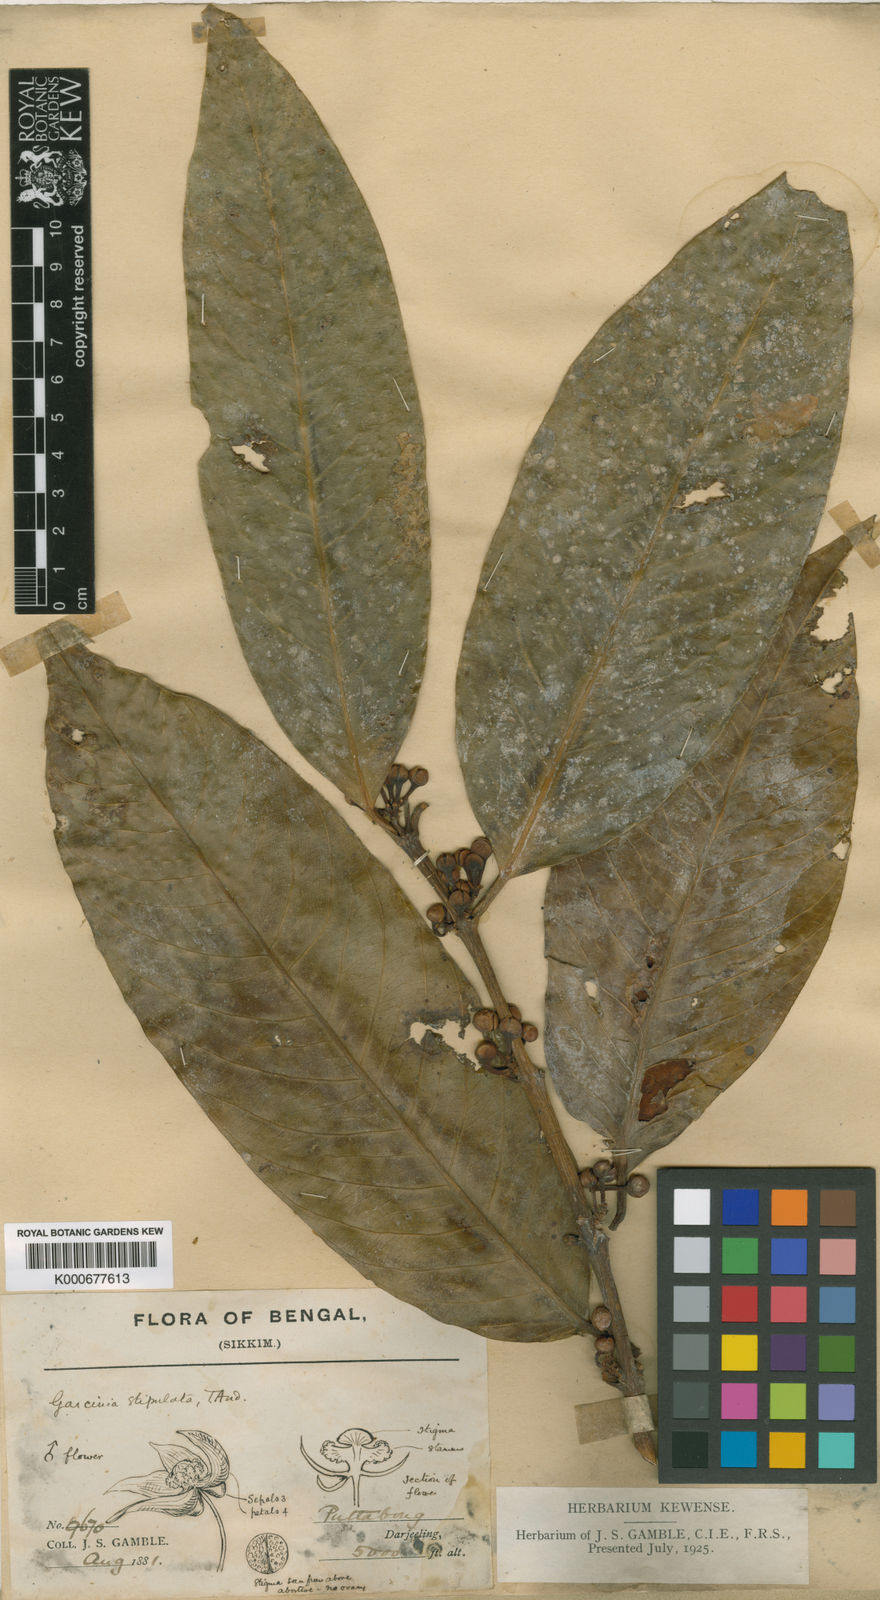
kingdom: Plantae
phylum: Tracheophyta
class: Magnoliopsida
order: Malpighiales
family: Clusiaceae
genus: Garcinia
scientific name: Garcinia stipulata
